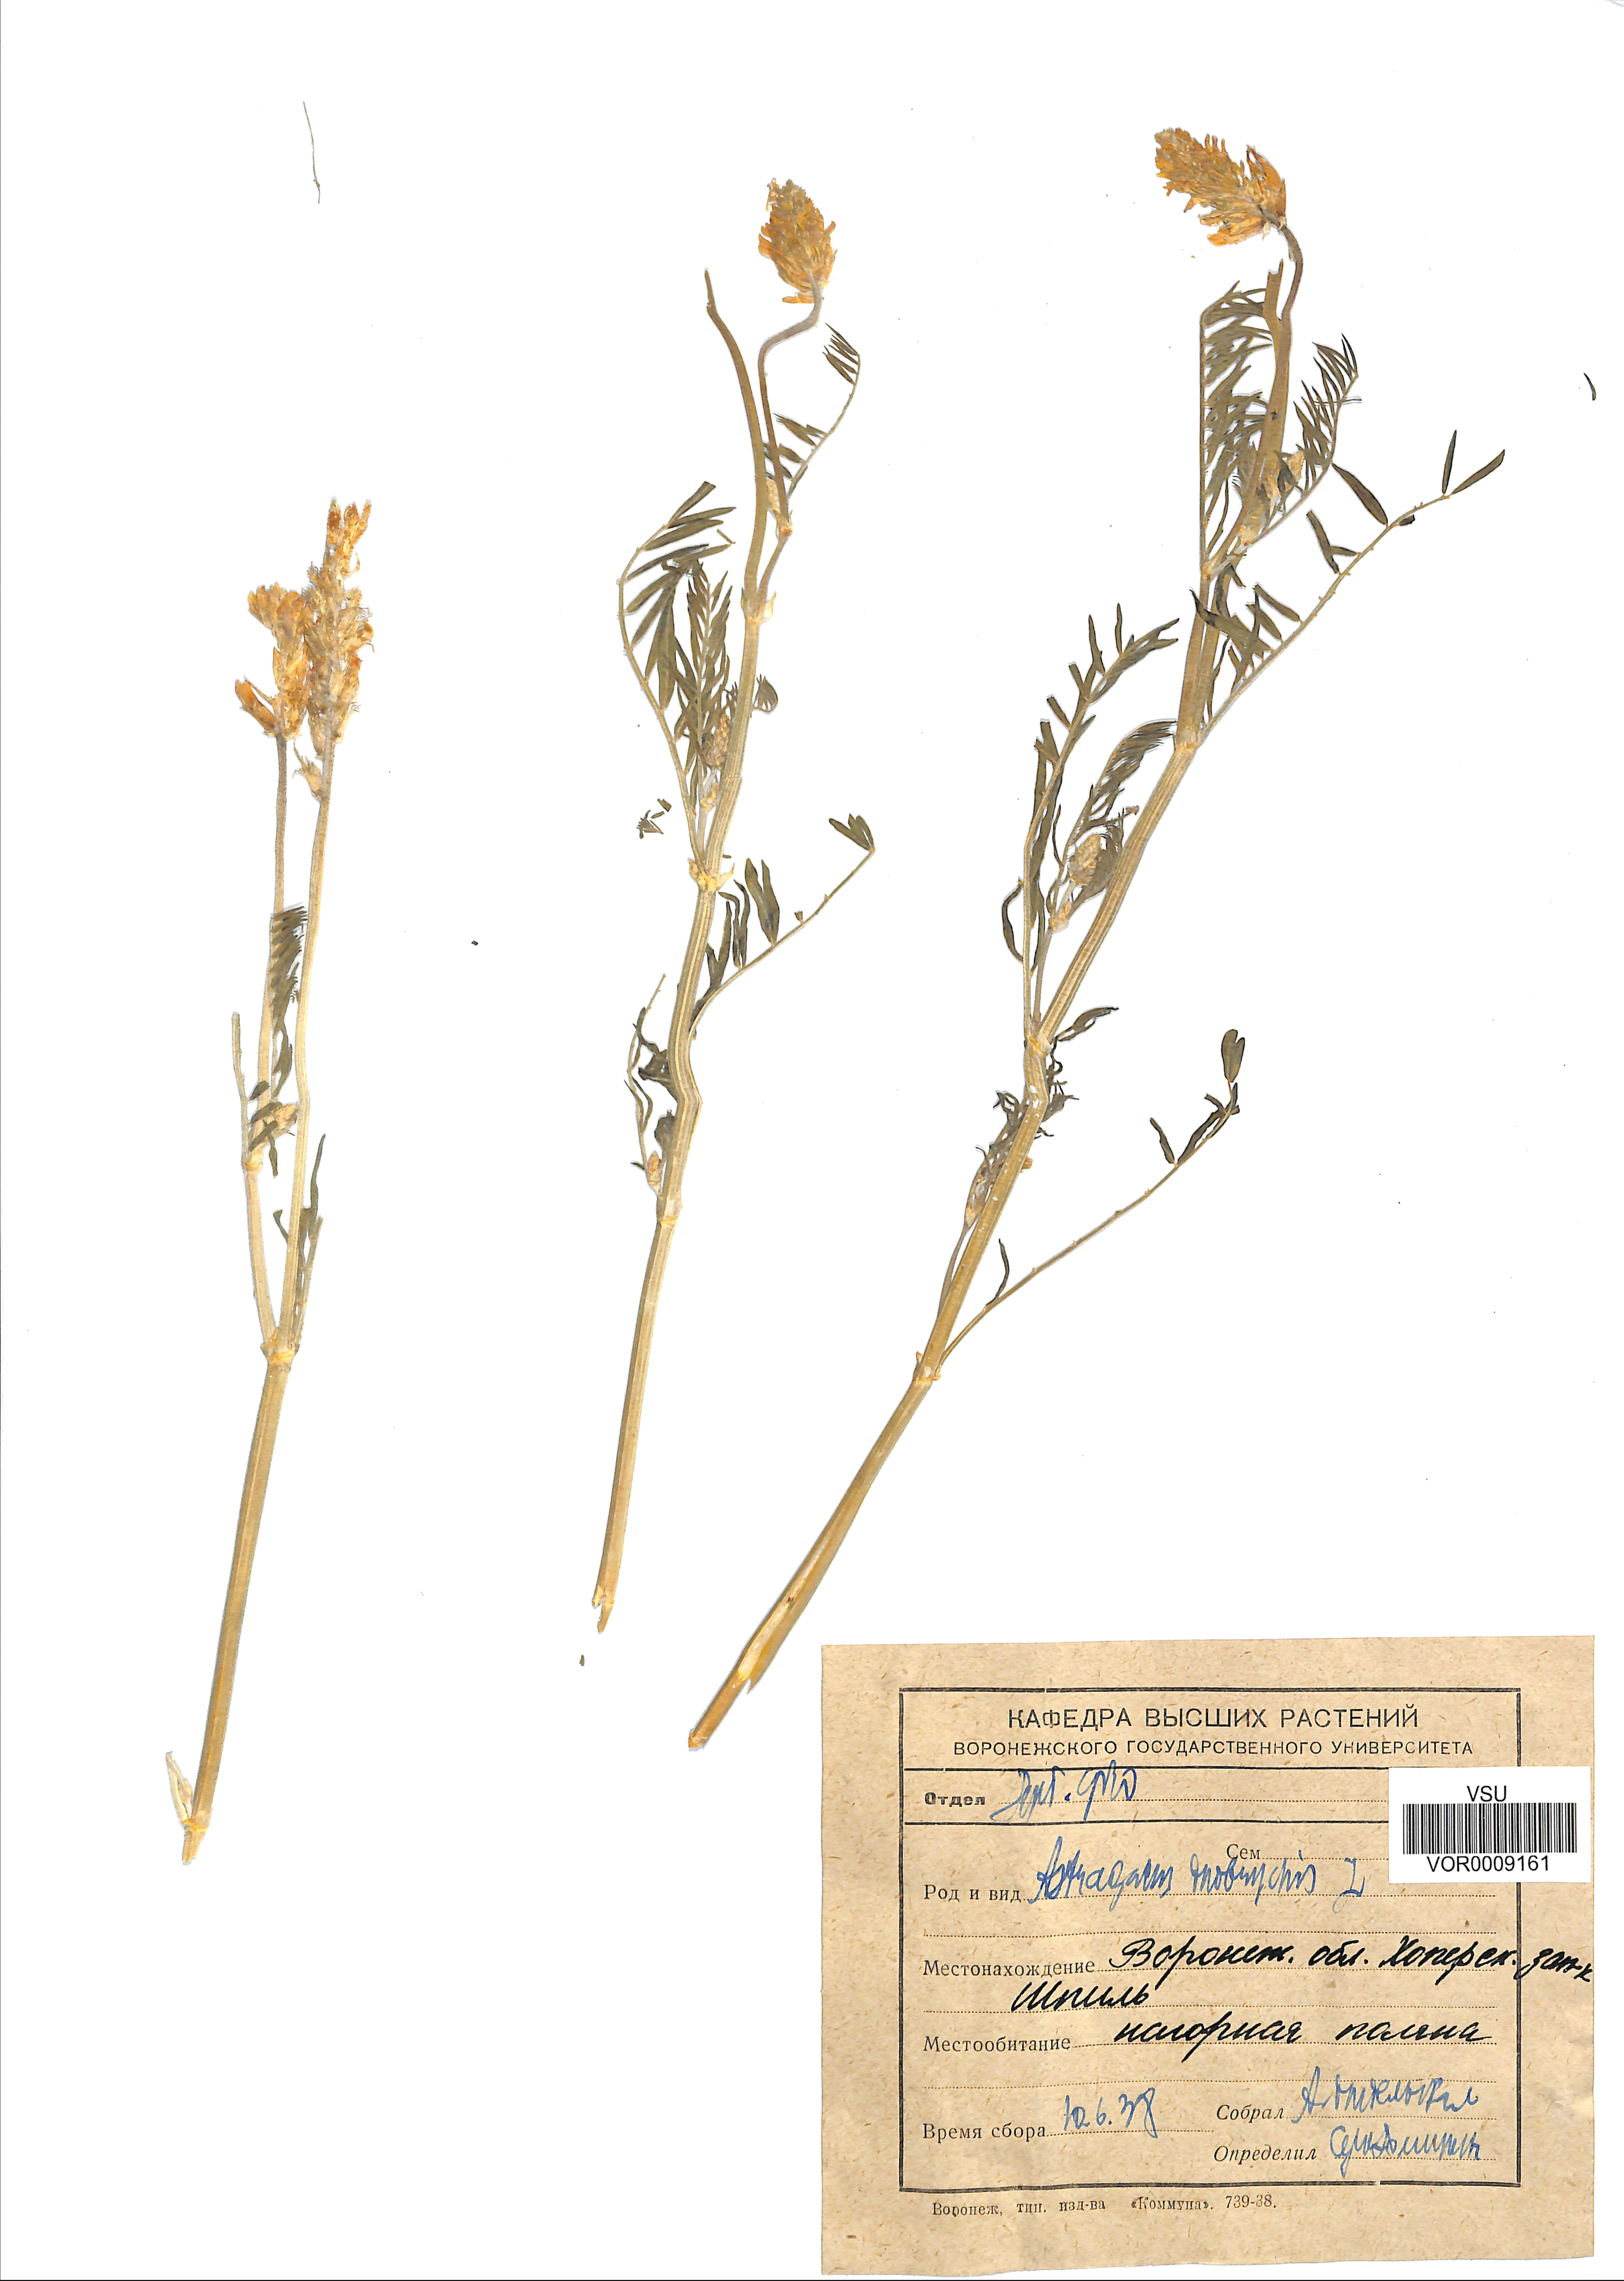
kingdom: Plantae
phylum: Tracheophyta
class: Magnoliopsida
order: Fabales
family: Fabaceae
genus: Astragalus
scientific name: Astragalus onobrychis
